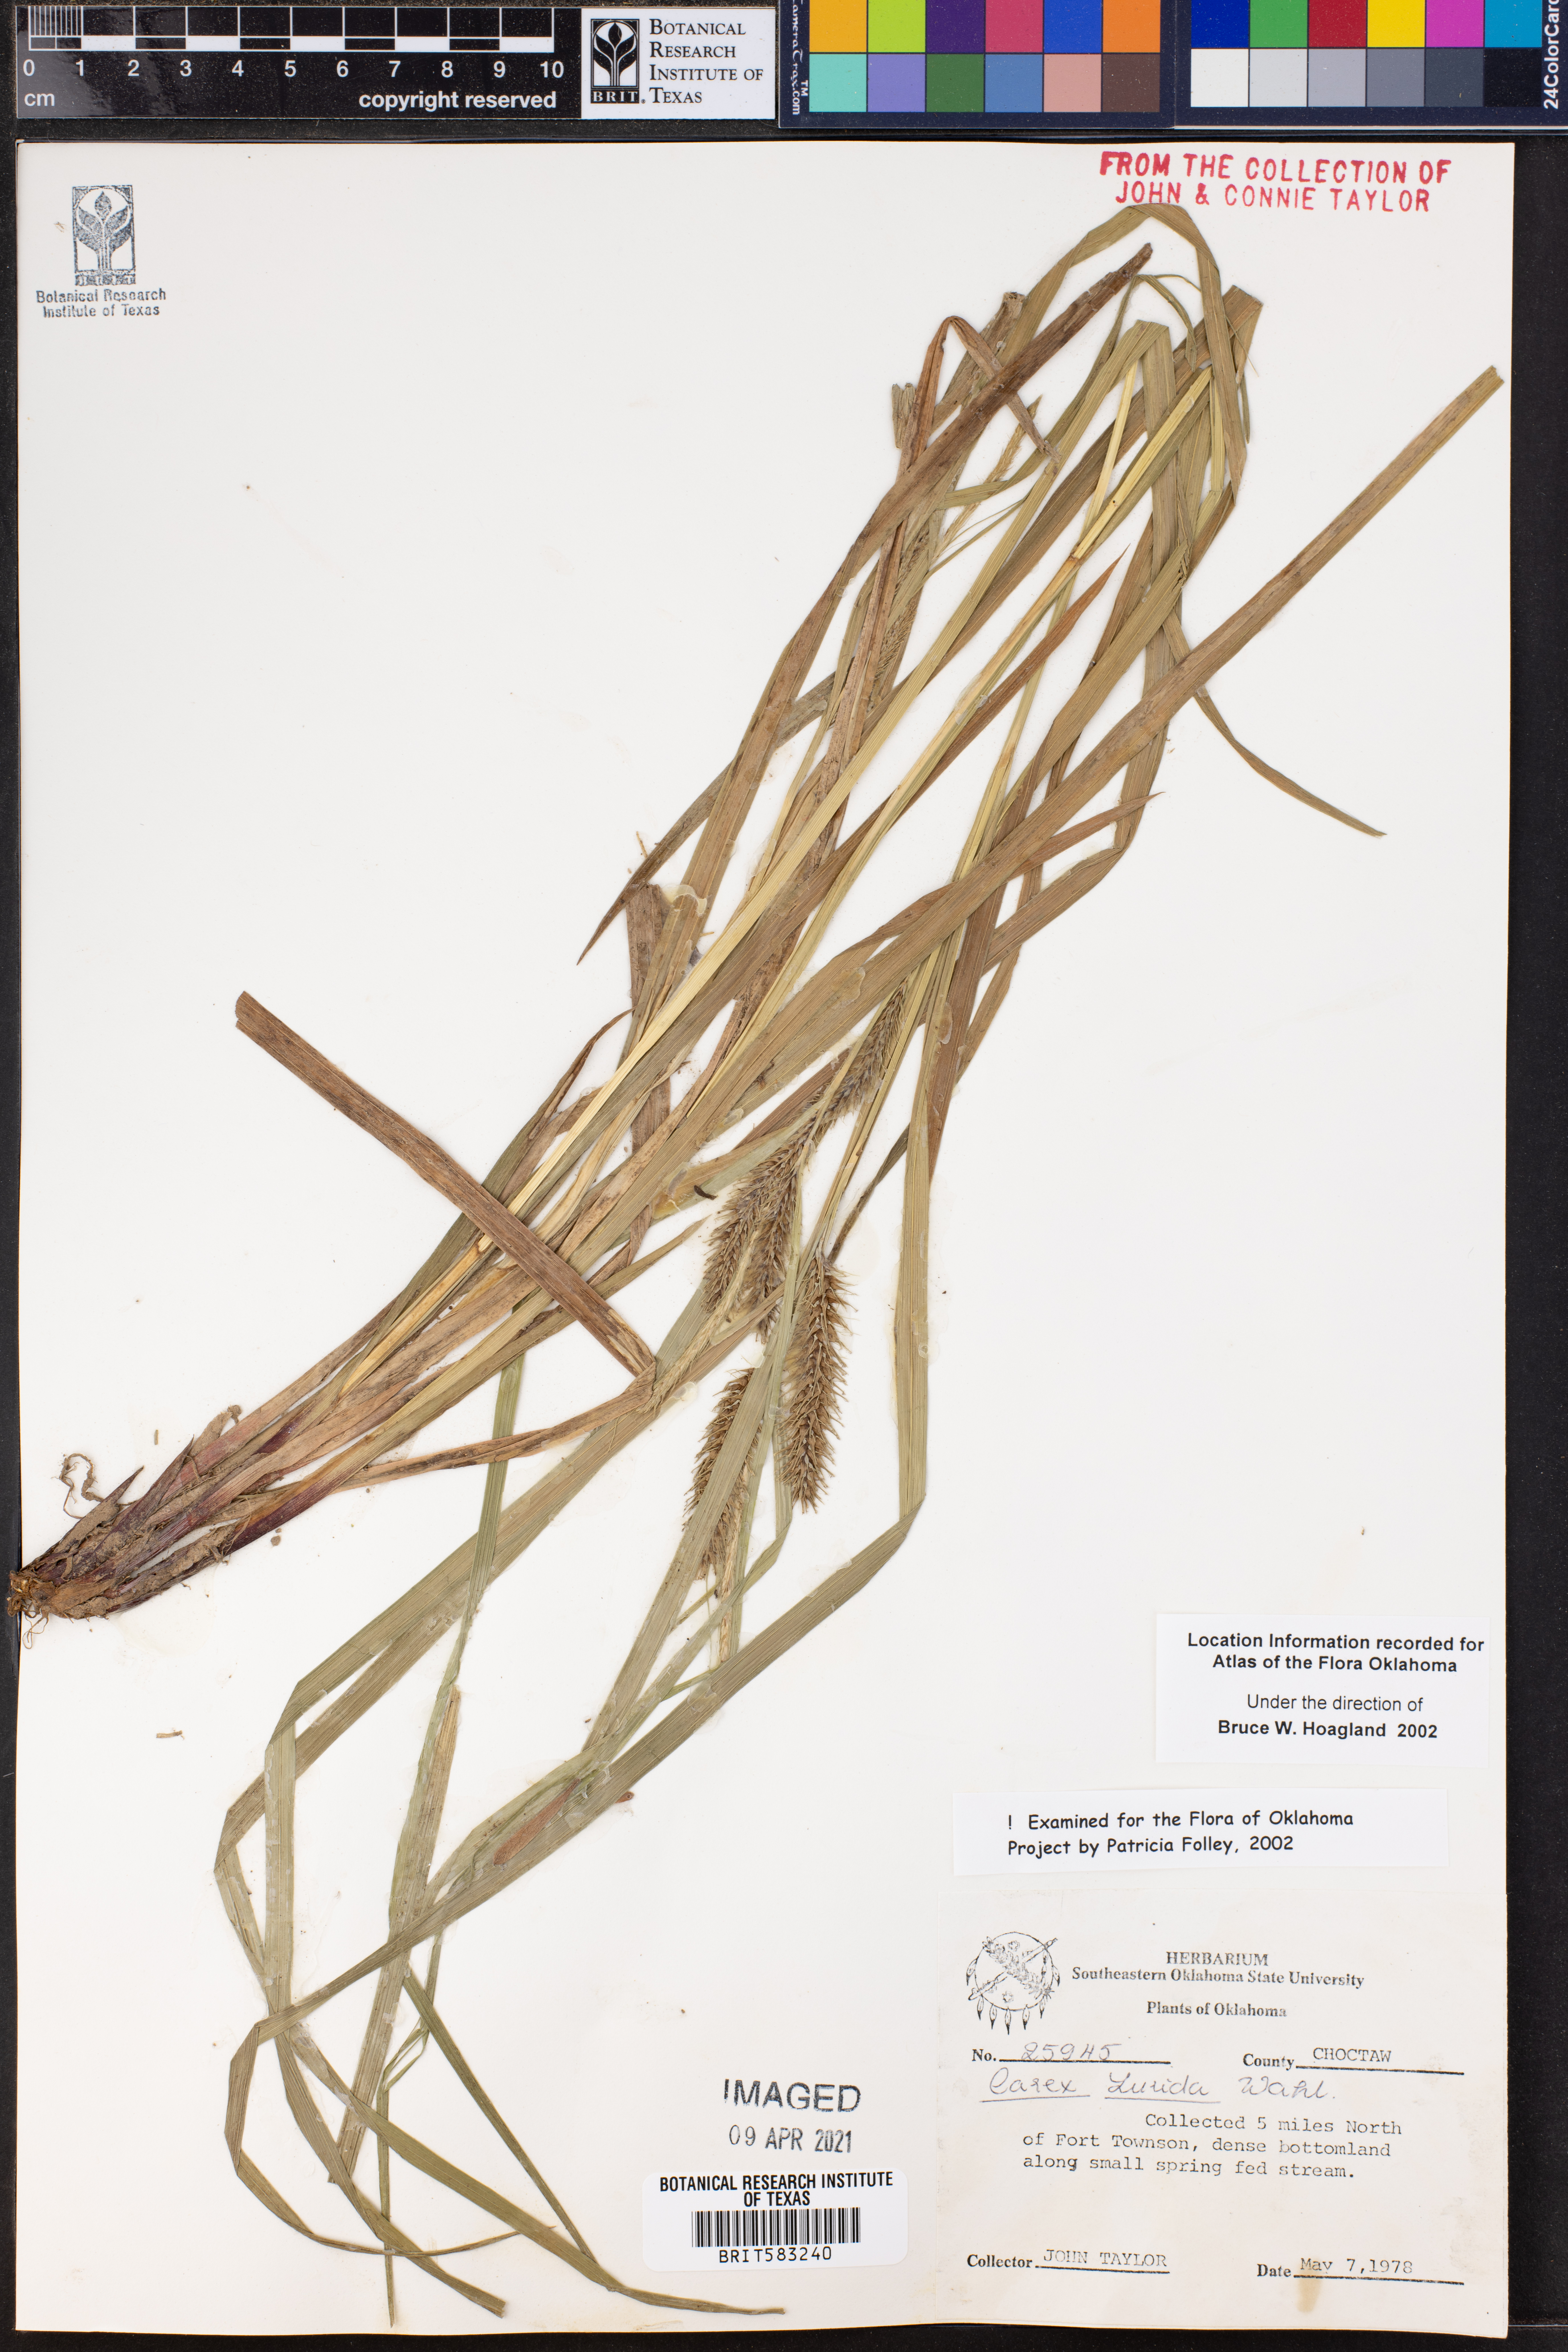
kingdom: Plantae
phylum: Tracheophyta
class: Liliopsida
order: Poales
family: Cyperaceae
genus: Carex
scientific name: Carex lurida
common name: Sallow sedge
